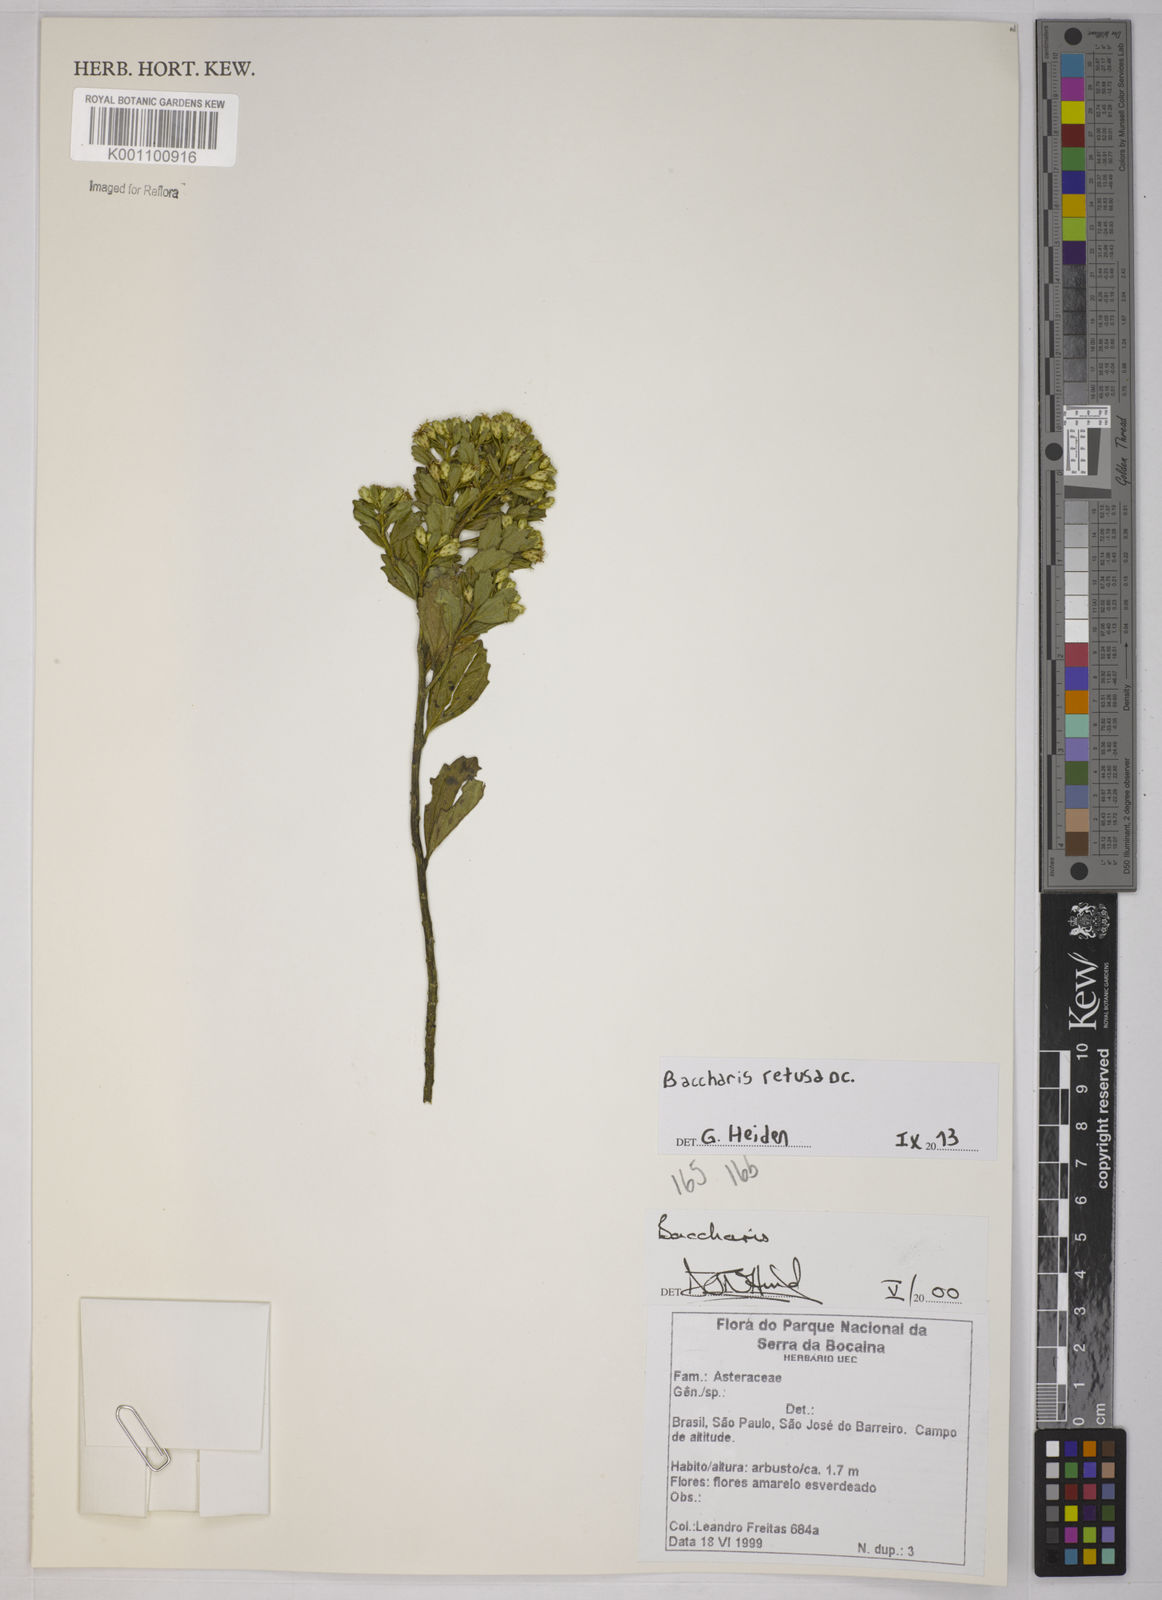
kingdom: Plantae
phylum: Tracheophyta
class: Magnoliopsida
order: Asterales
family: Asteraceae
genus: Baccharis
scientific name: Baccharis retusa
